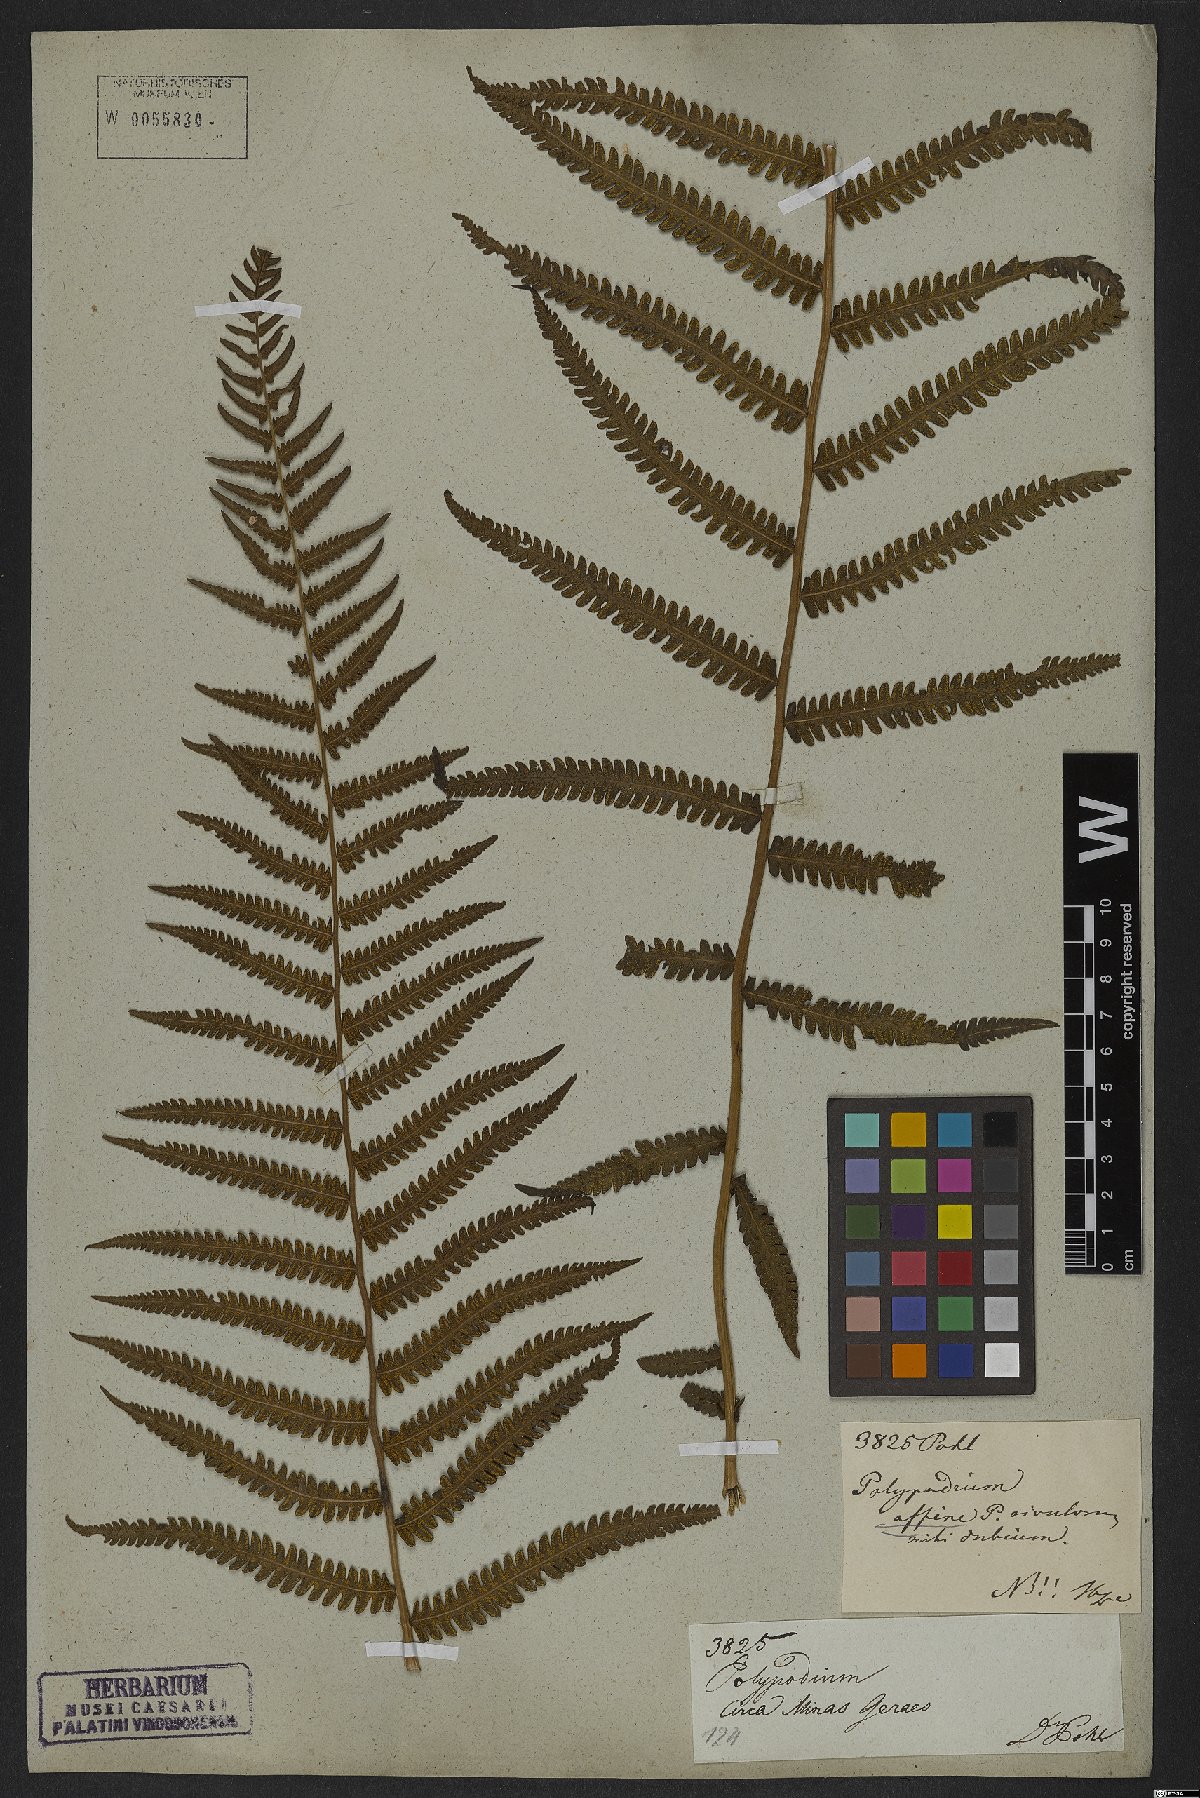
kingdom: Plantae
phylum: Tracheophyta
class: Polypodiopsida
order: Polypodiales
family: Dryopteridaceae
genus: Dryopteris
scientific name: Dryopteris
